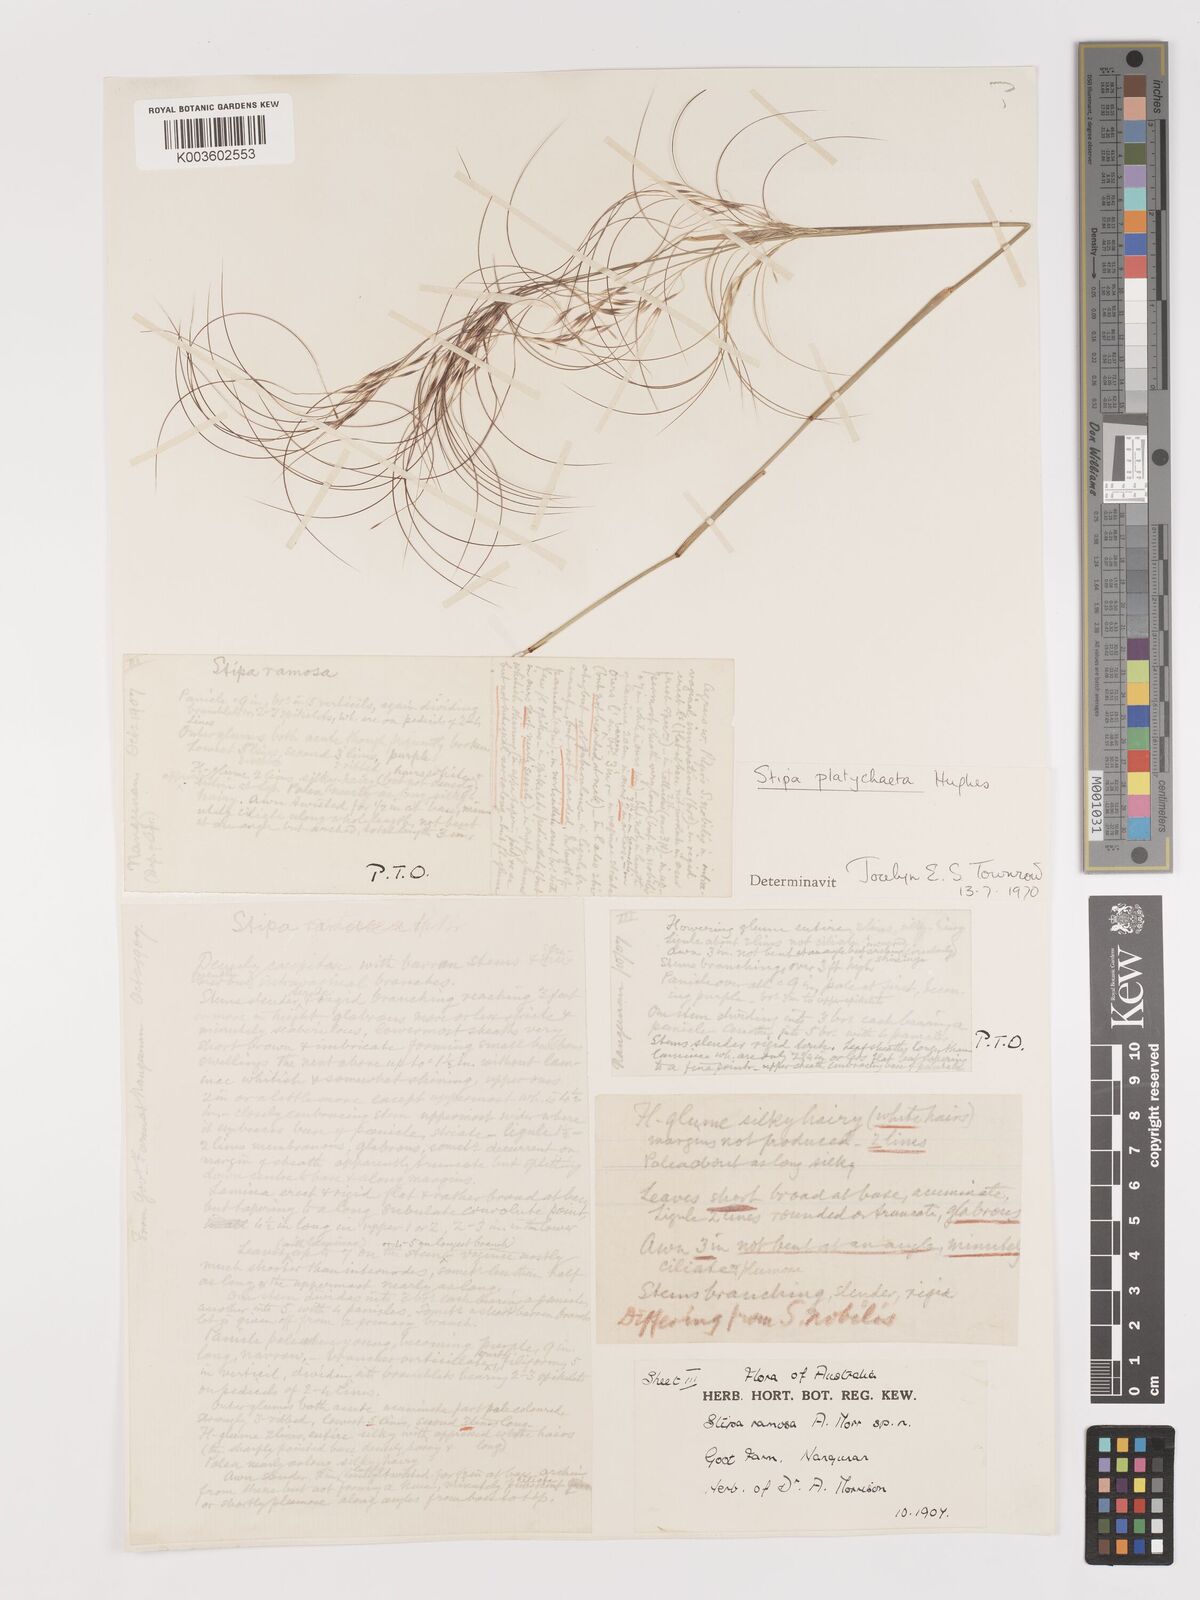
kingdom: Plantae
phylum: Tracheophyta
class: Liliopsida
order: Poales
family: Poaceae
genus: Austrostipa
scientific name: Austrostipa platychaeta
